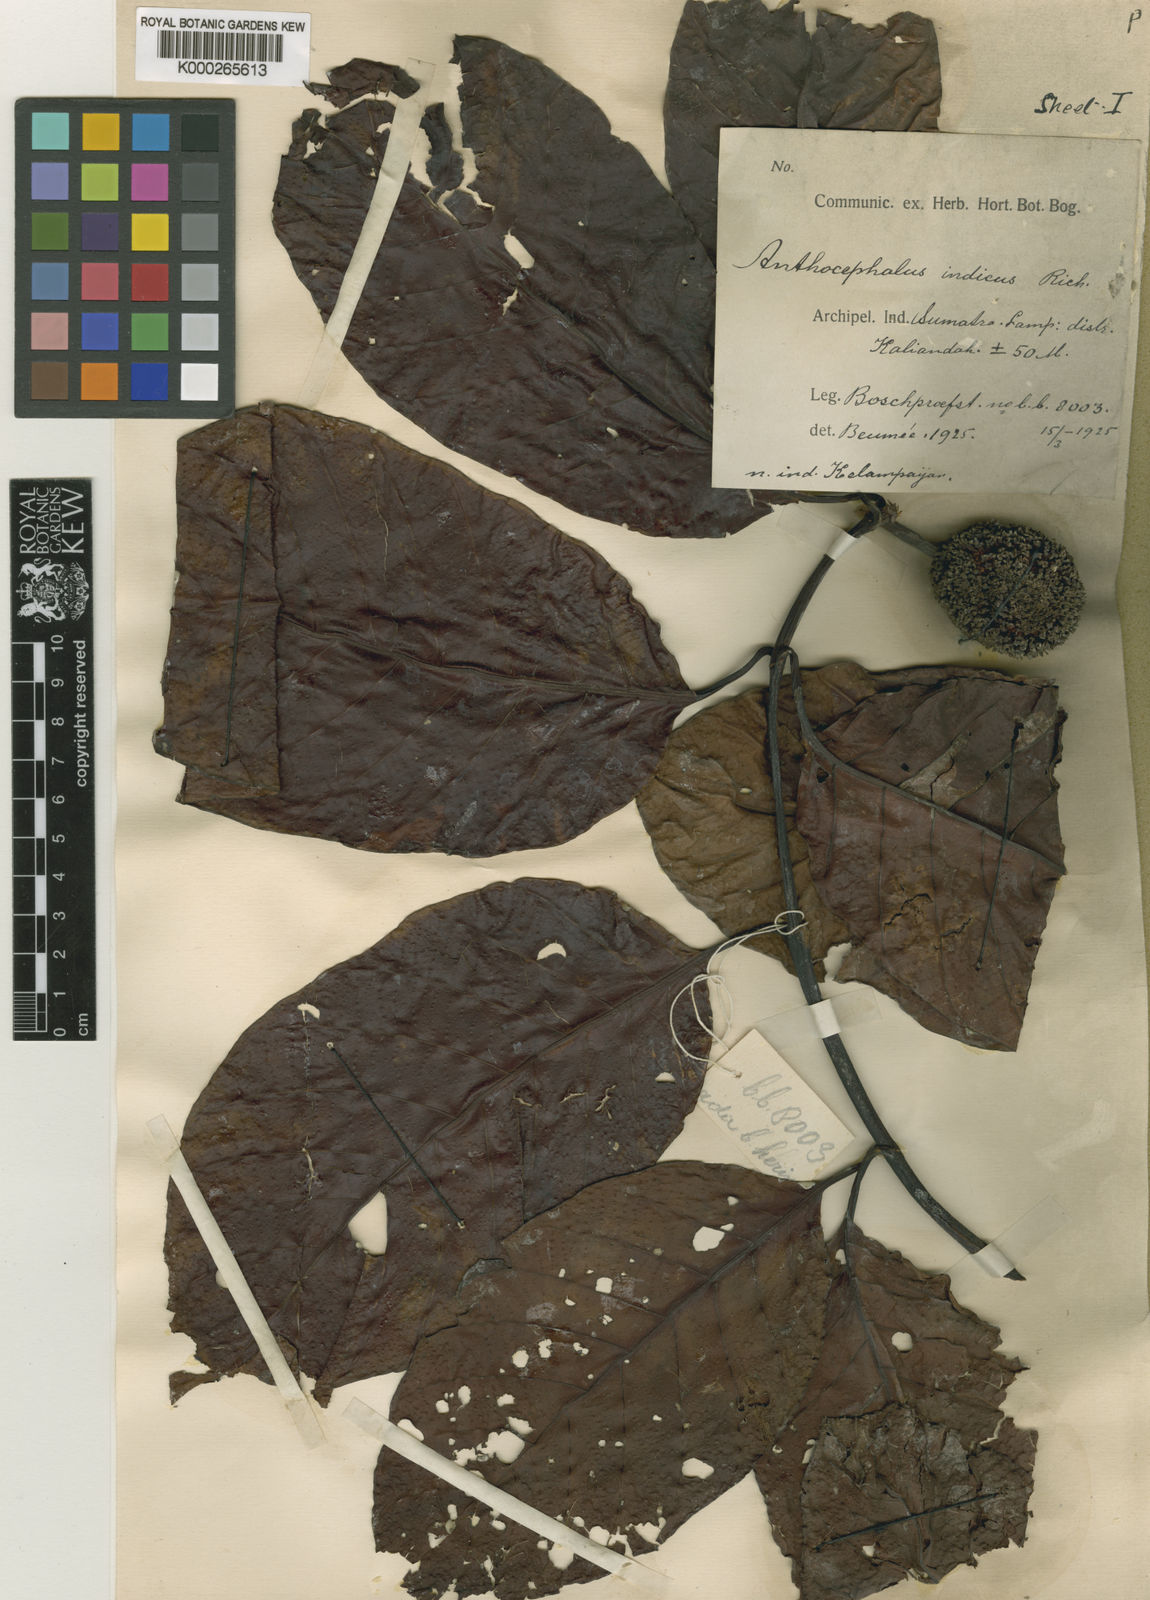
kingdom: Plantae
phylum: Tracheophyta
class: Magnoliopsida
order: Gentianales
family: Rubiaceae
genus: Neolamarckia
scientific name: Neolamarckia cadamba
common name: Leichhardt-pine
